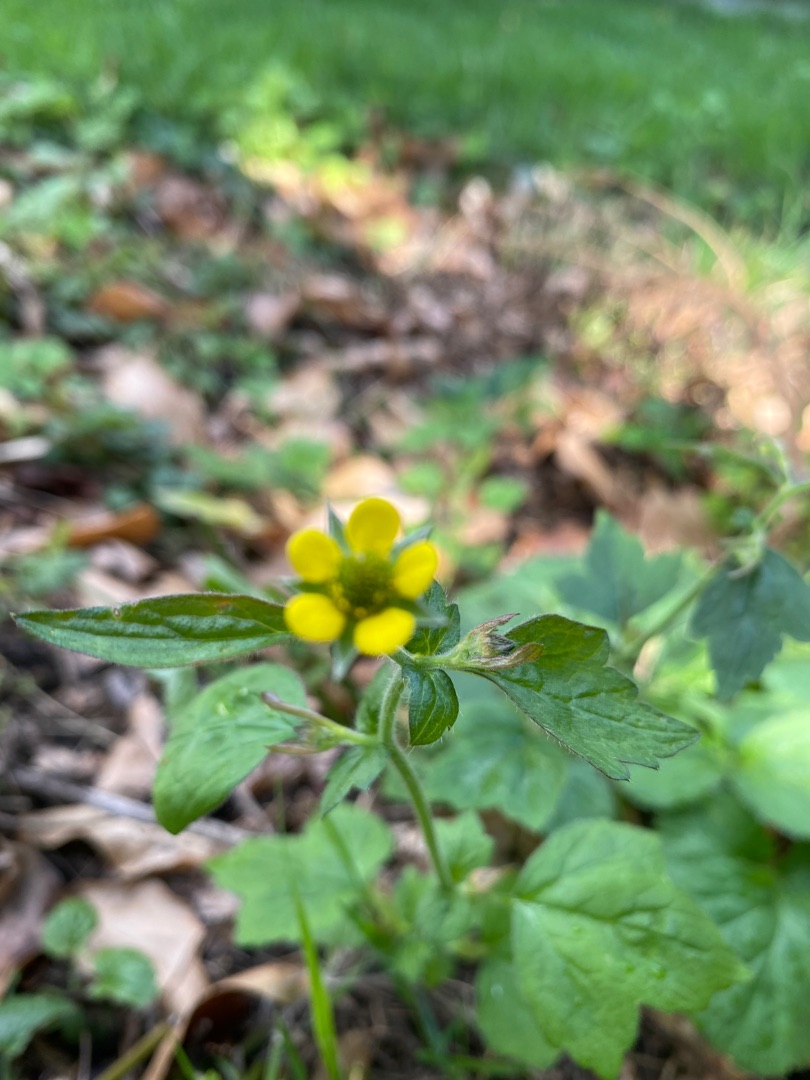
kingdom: Plantae
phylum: Tracheophyta
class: Magnoliopsida
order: Rosales
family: Rosaceae
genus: Geum
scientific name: Geum urbanum
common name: Feber-nellikerod
